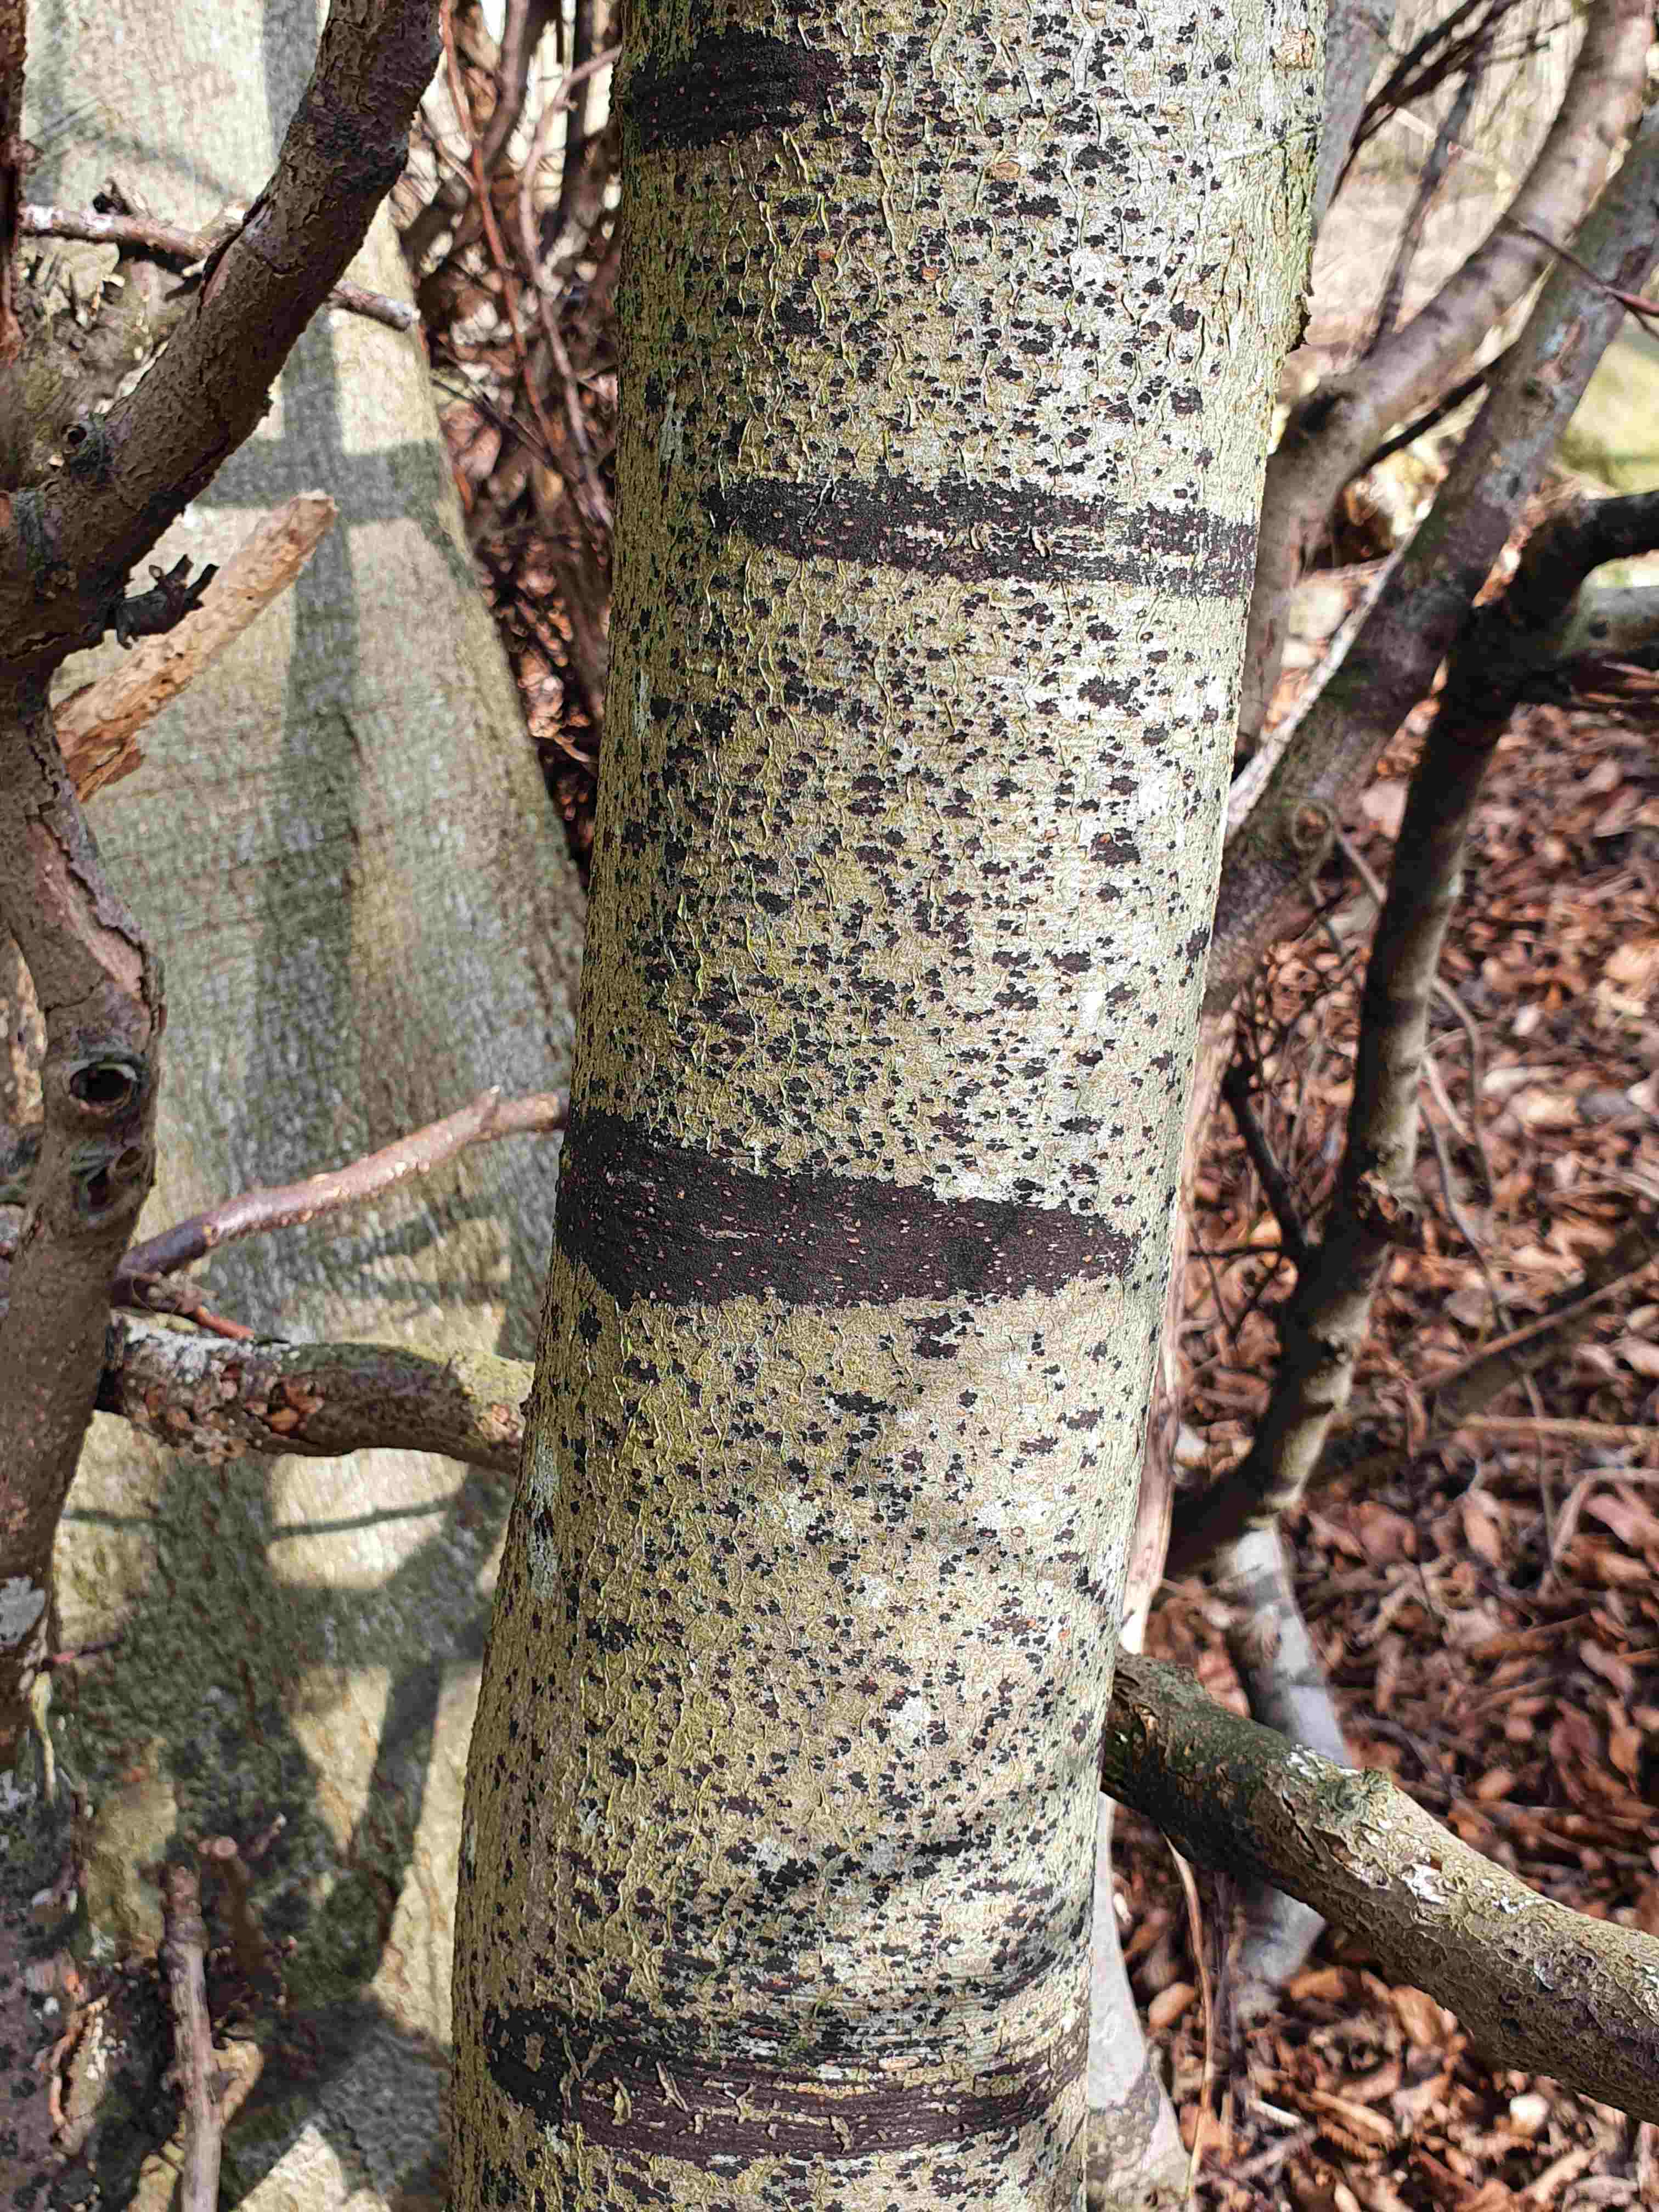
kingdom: Fungi
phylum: Ascomycota
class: Leotiomycetes
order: Rhytismatales
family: Ascodichaenaceae
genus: Ascodichaena
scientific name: Ascodichaena rugosa
